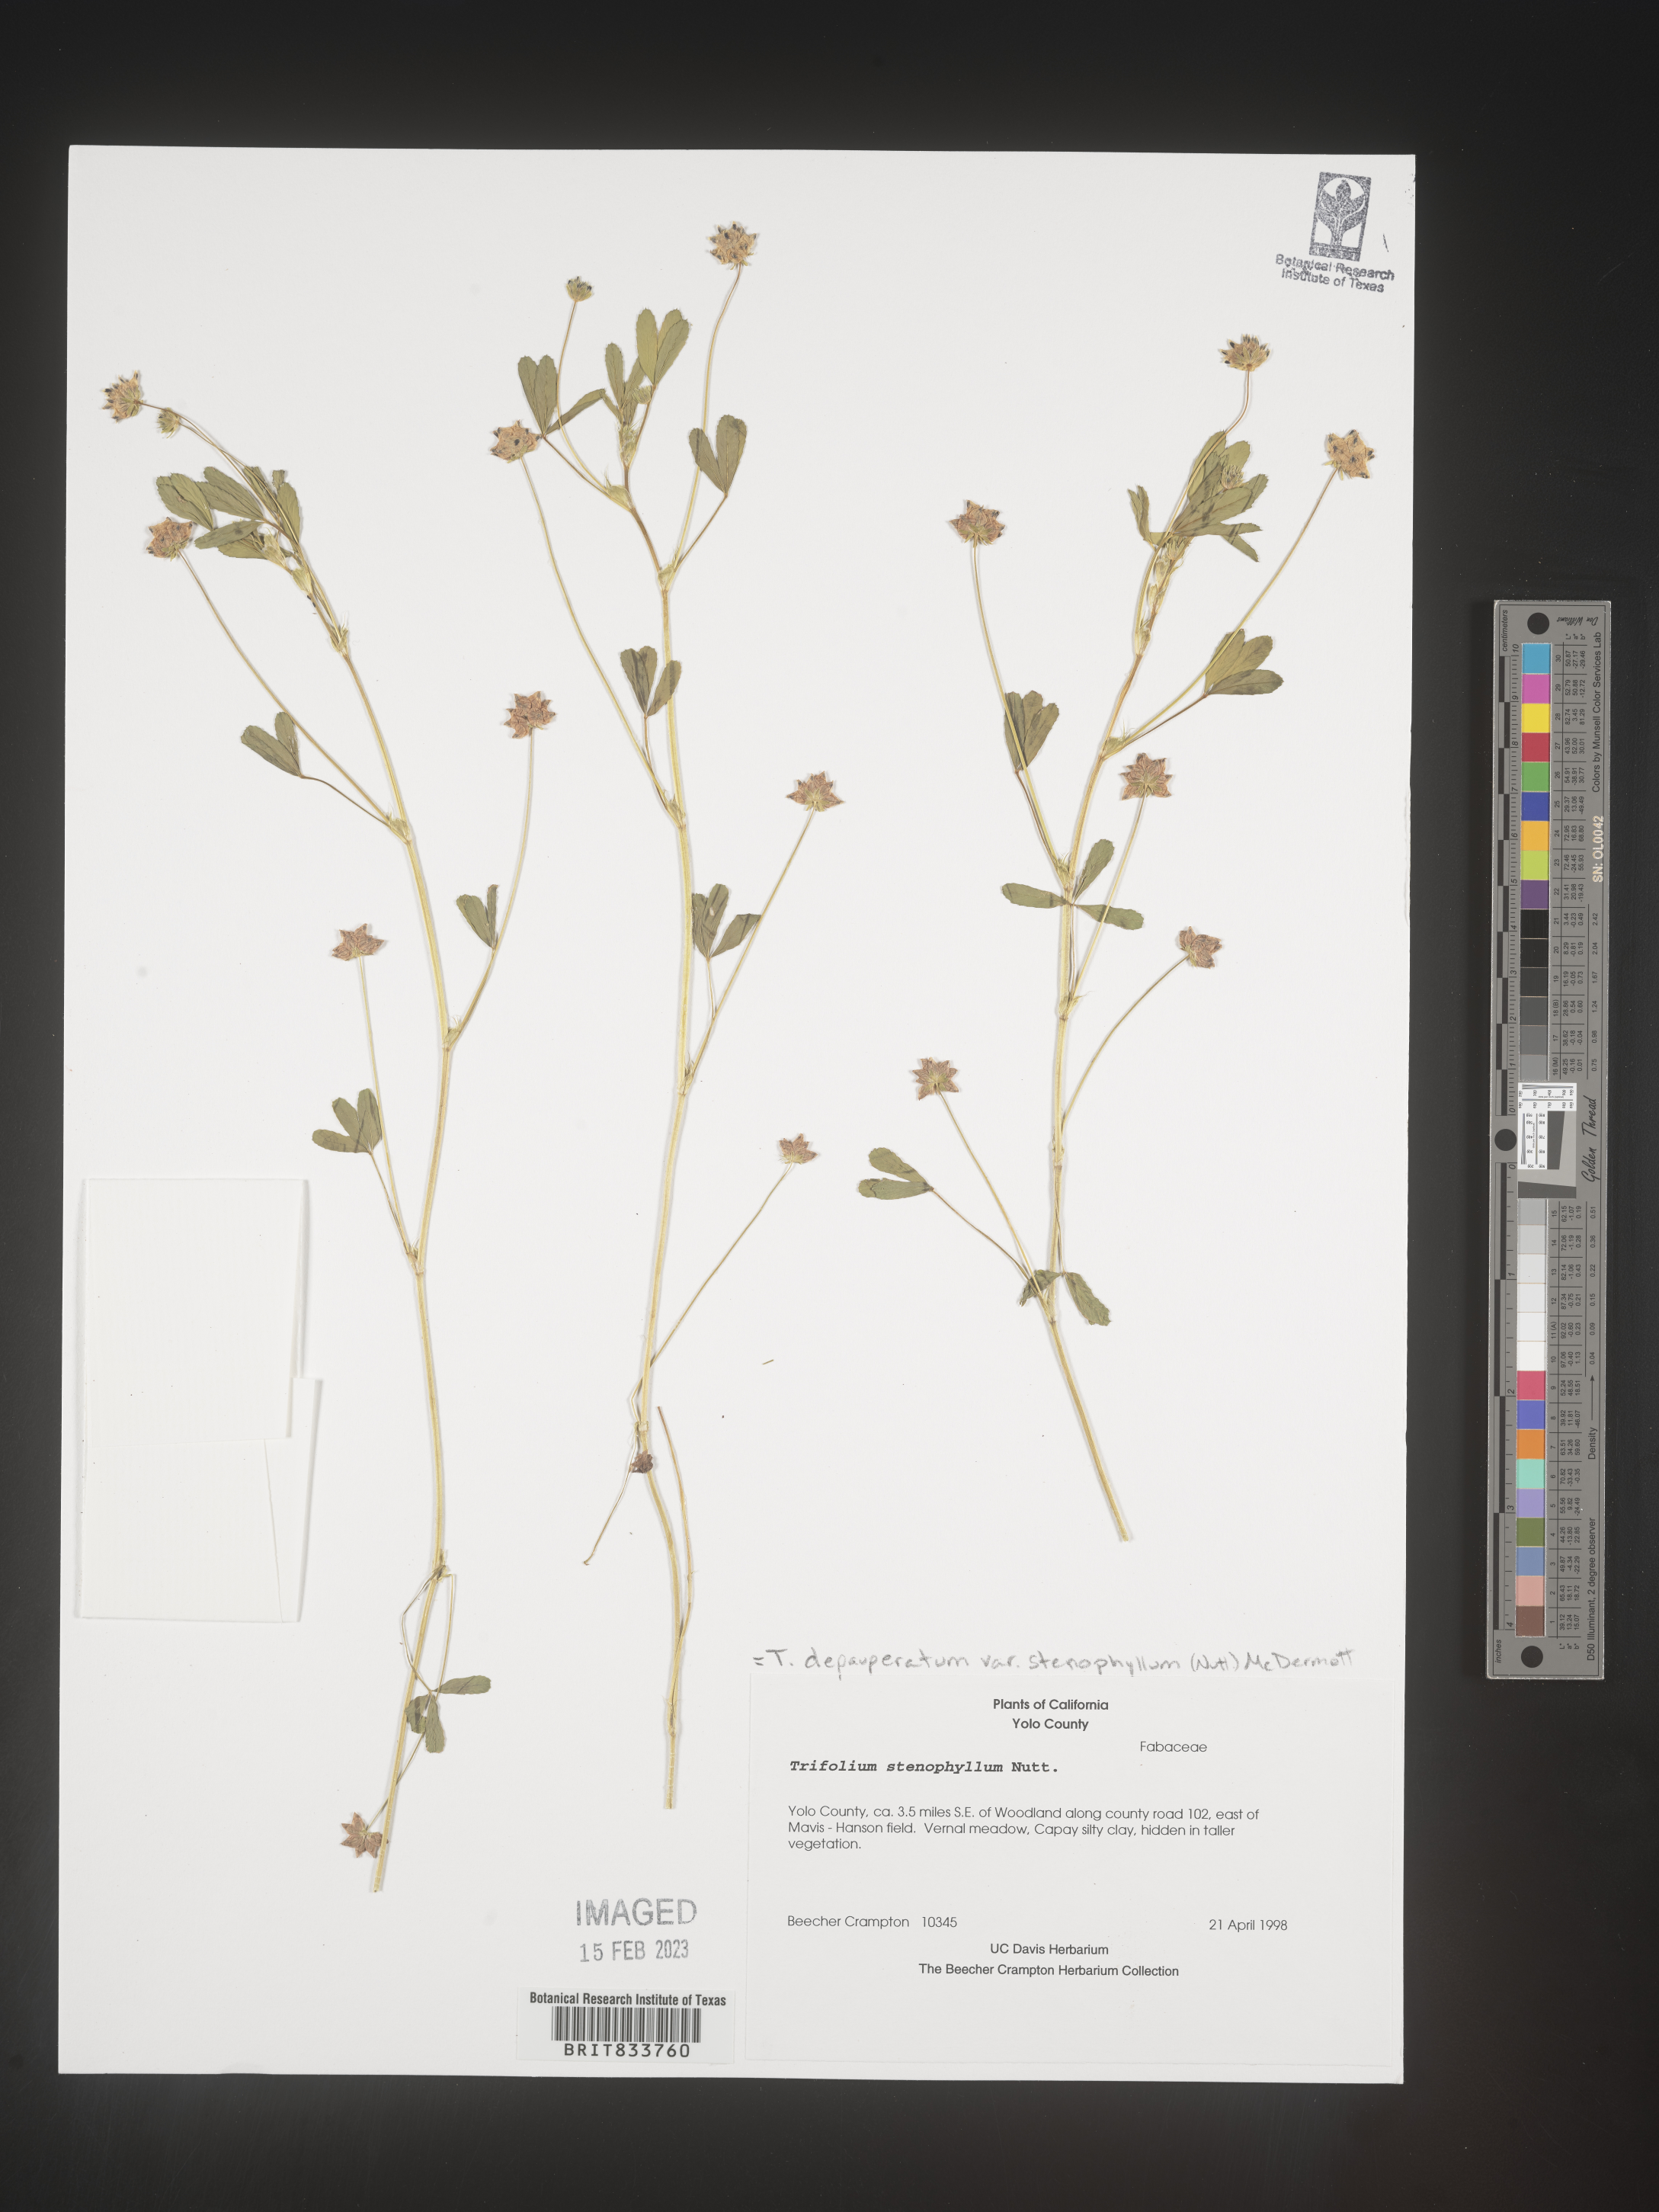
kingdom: Plantae
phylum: Tracheophyta
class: Magnoliopsida
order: Fabales
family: Fabaceae
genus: Trifolium
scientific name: Trifolium
